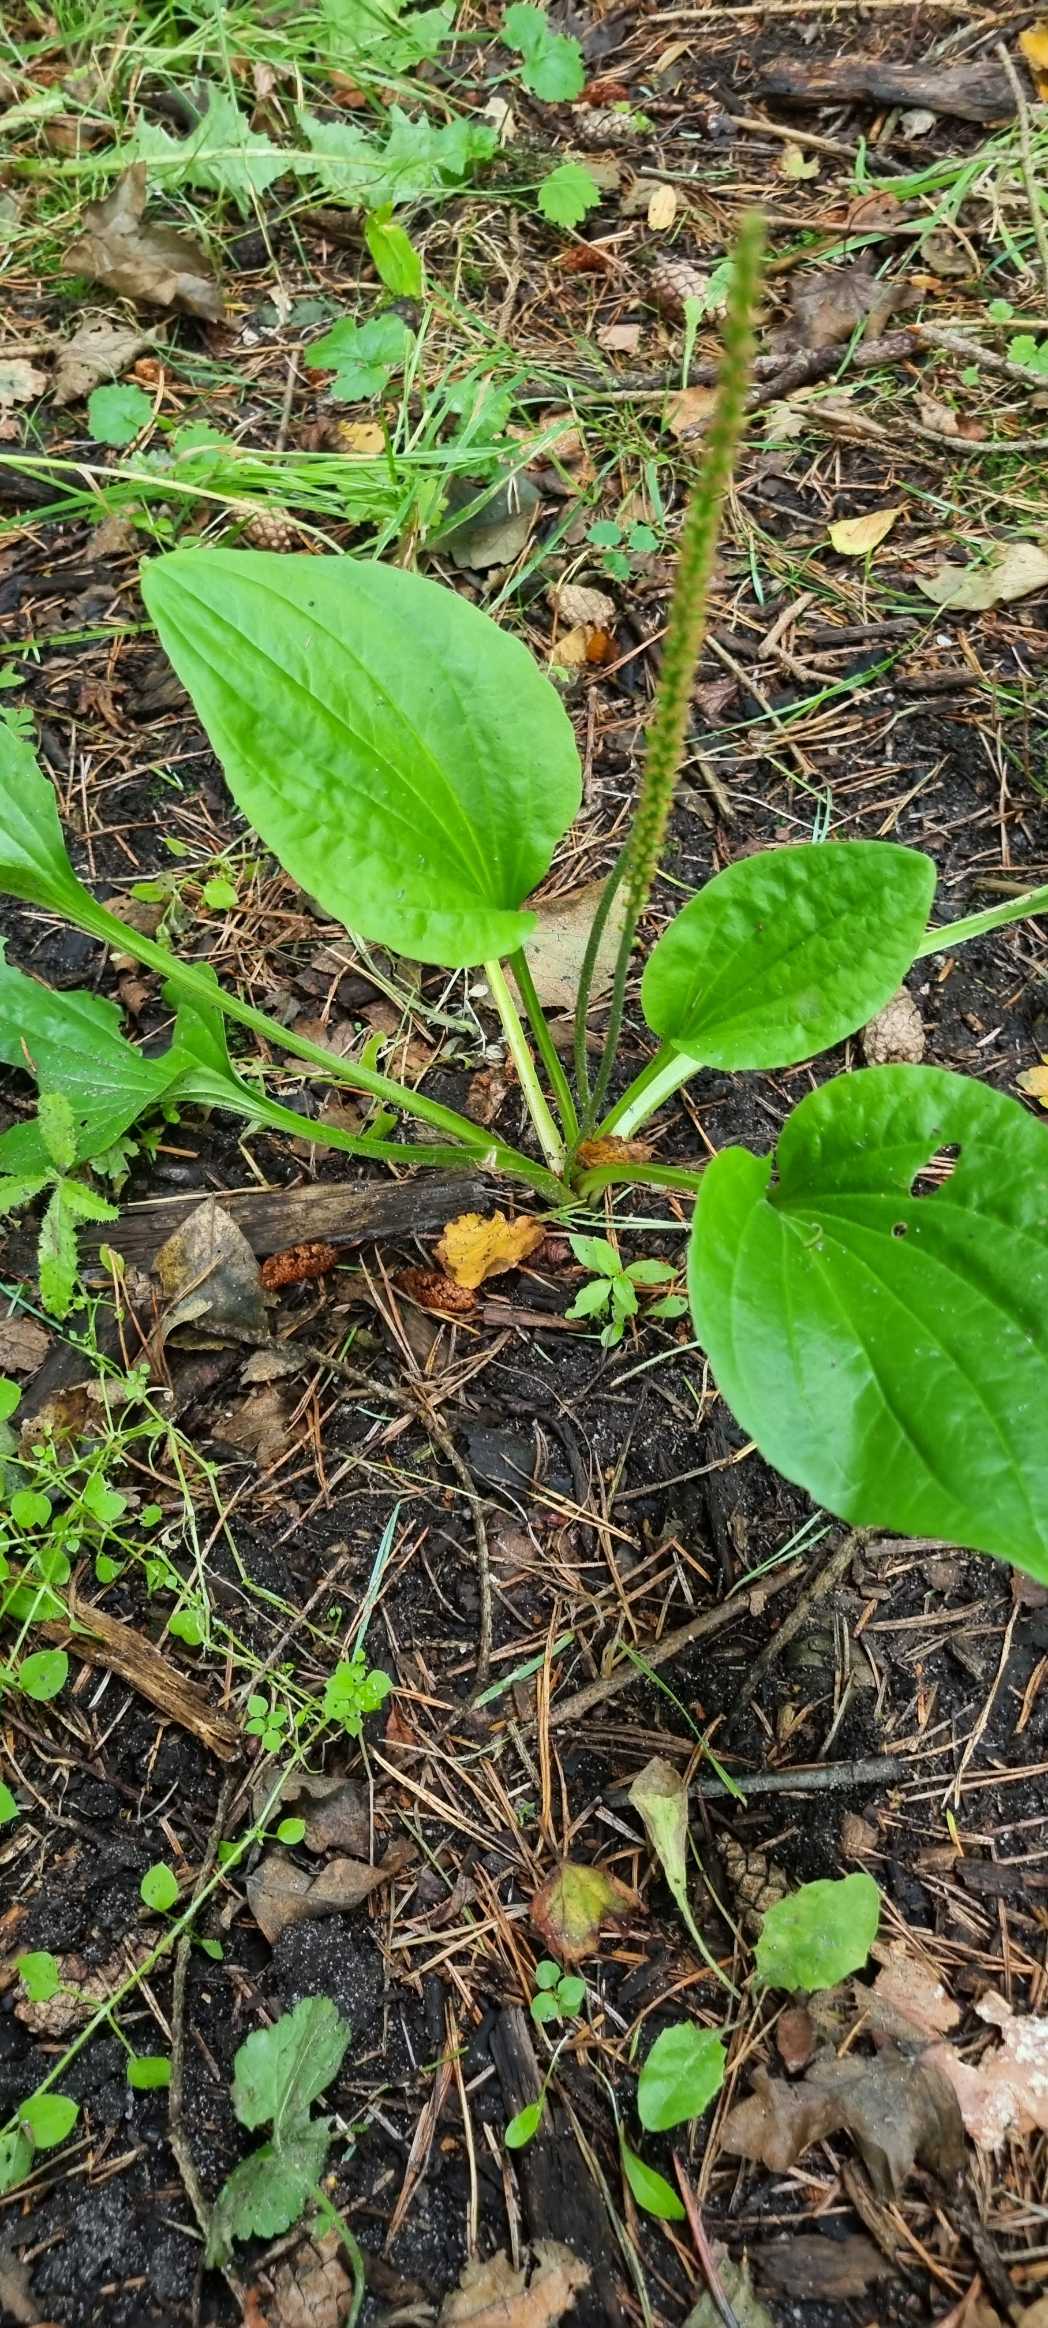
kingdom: Plantae
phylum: Tracheophyta
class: Magnoliopsida
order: Lamiales
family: Plantaginaceae
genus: Plantago
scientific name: Plantago major
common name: Glat vejbred
